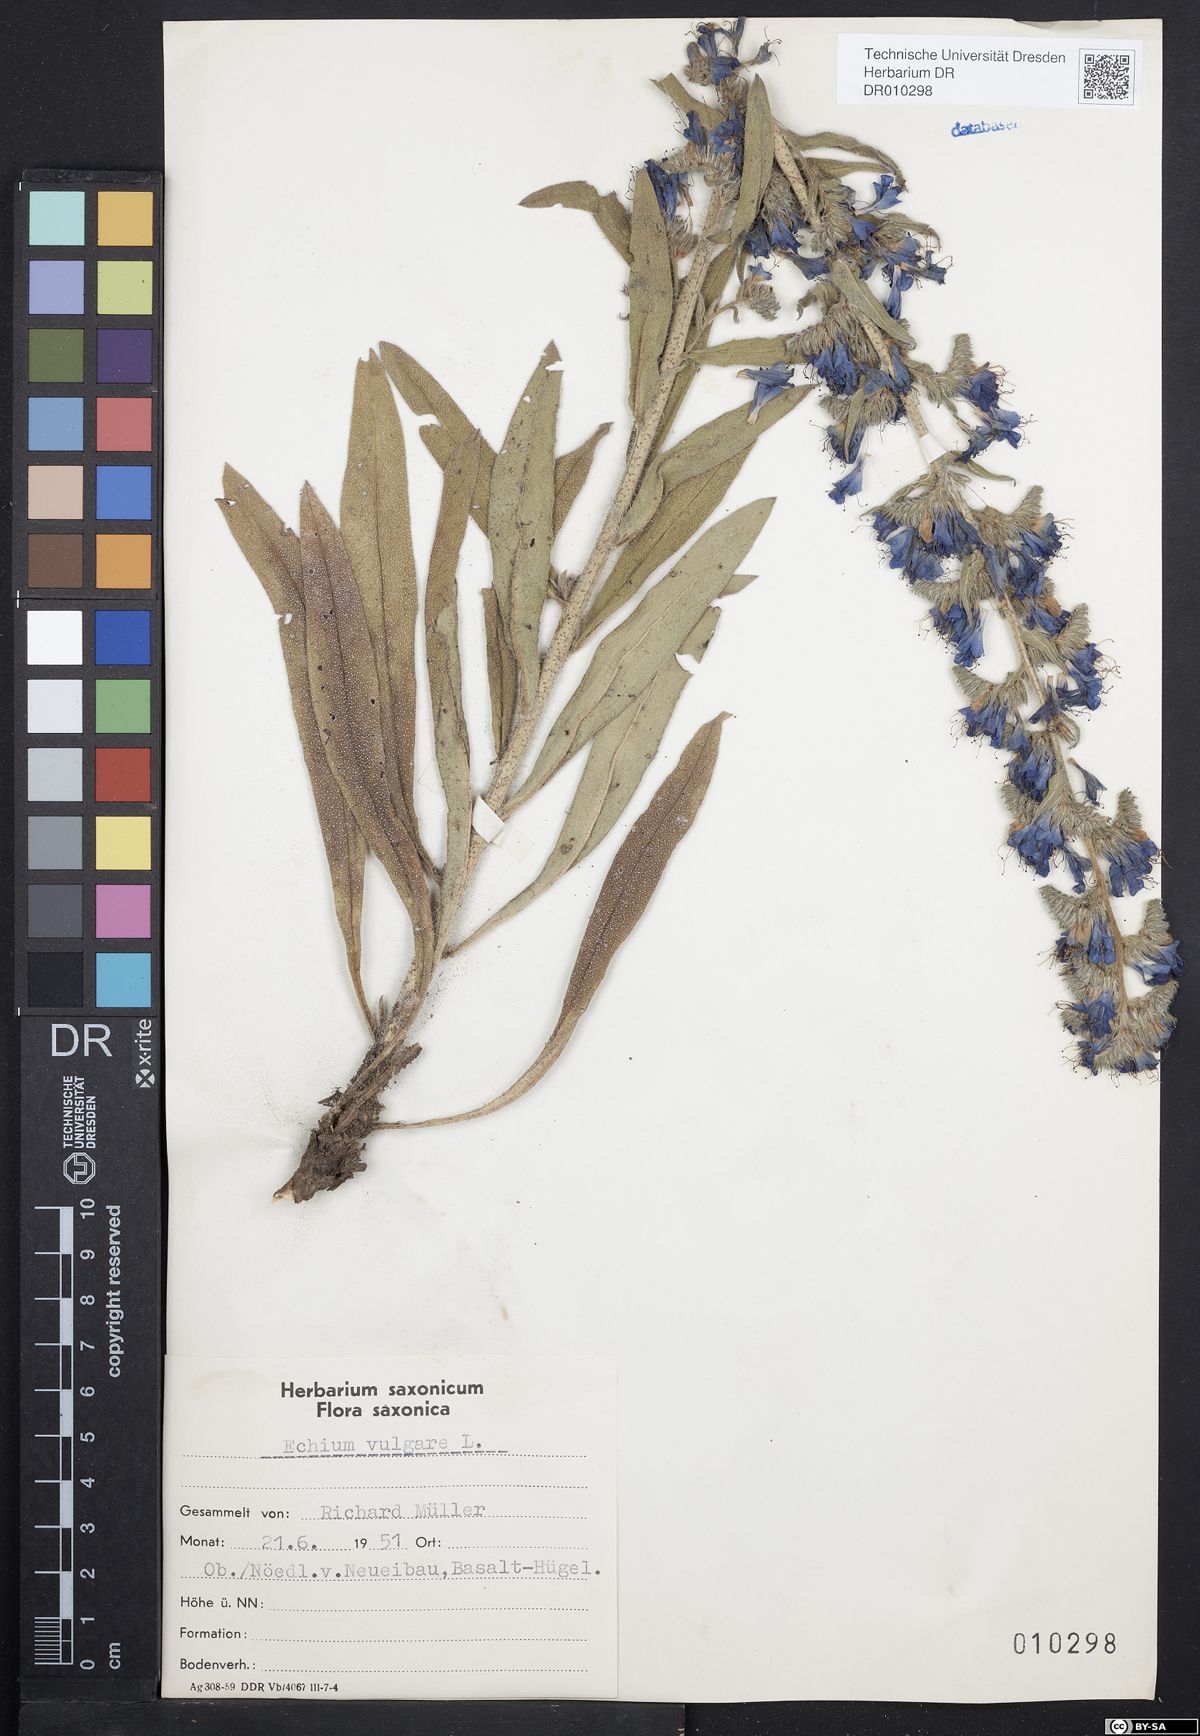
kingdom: Plantae
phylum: Tracheophyta
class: Magnoliopsida
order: Boraginales
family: Boraginaceae
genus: Echium
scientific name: Echium vulgare
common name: Common viper's bugloss
